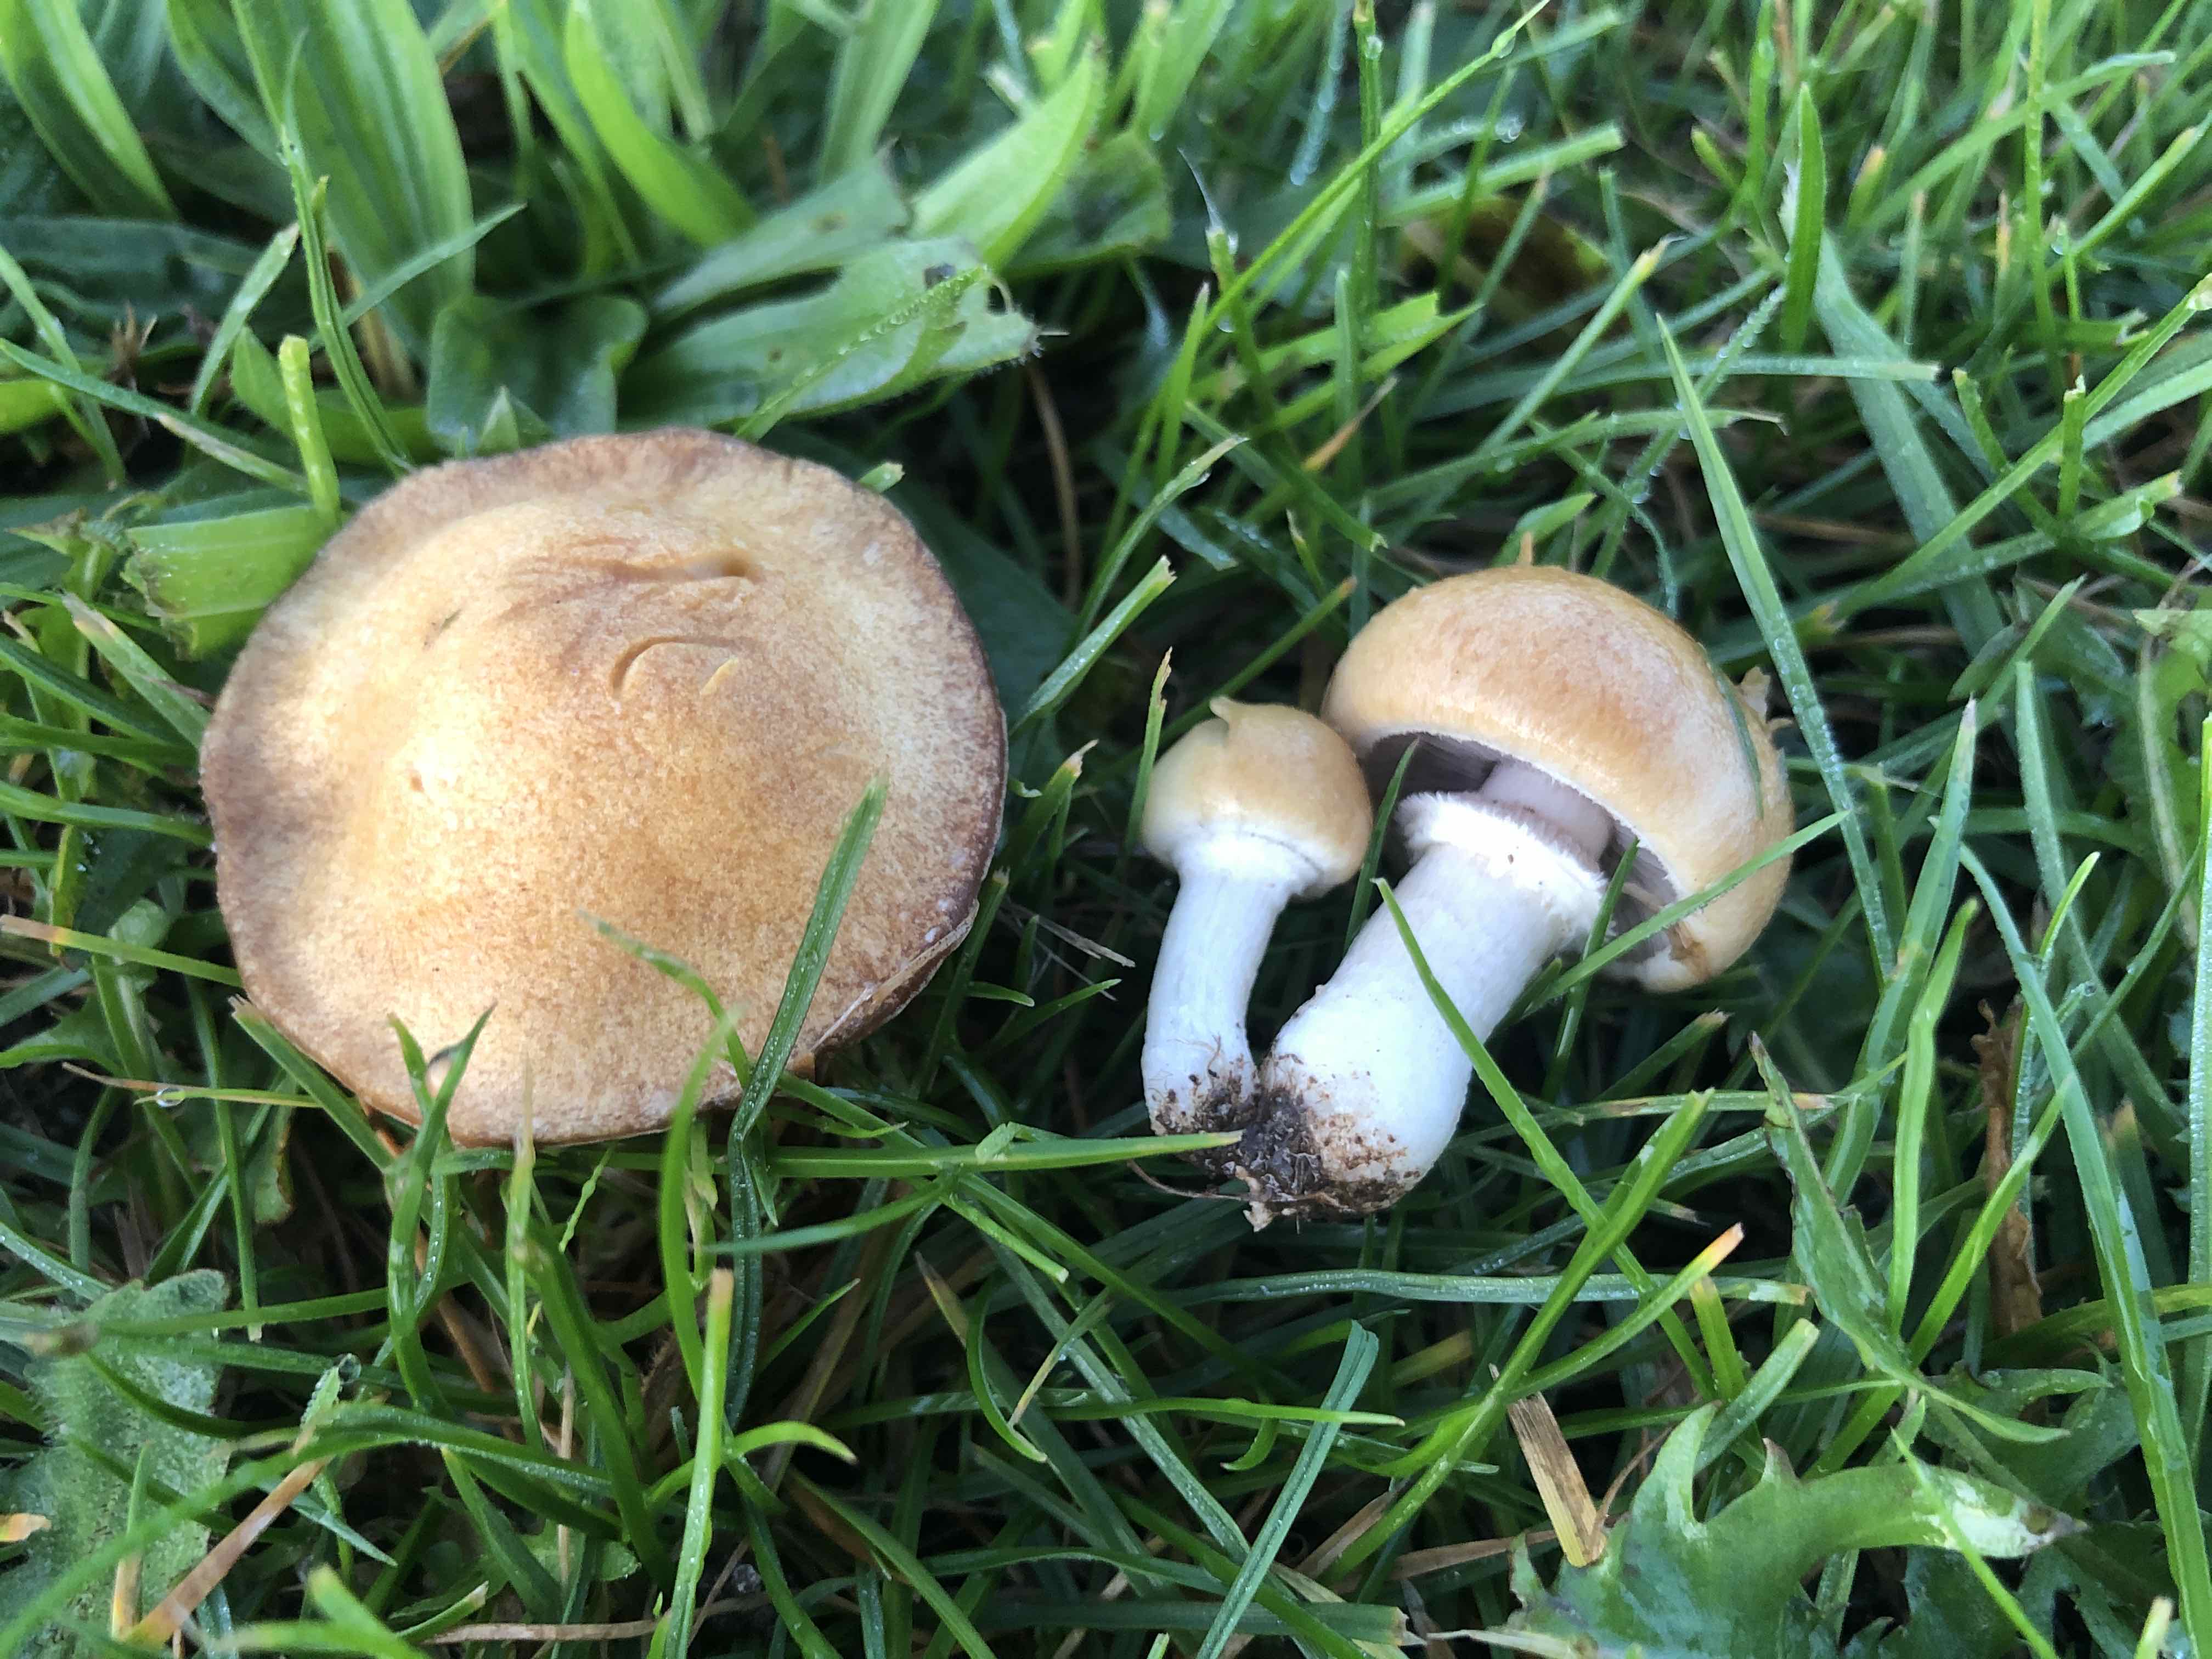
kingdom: Fungi
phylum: Basidiomycota
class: Agaricomycetes
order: Agaricales
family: Hymenogastraceae
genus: Psilocybe
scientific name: Psilocybe coronilla
